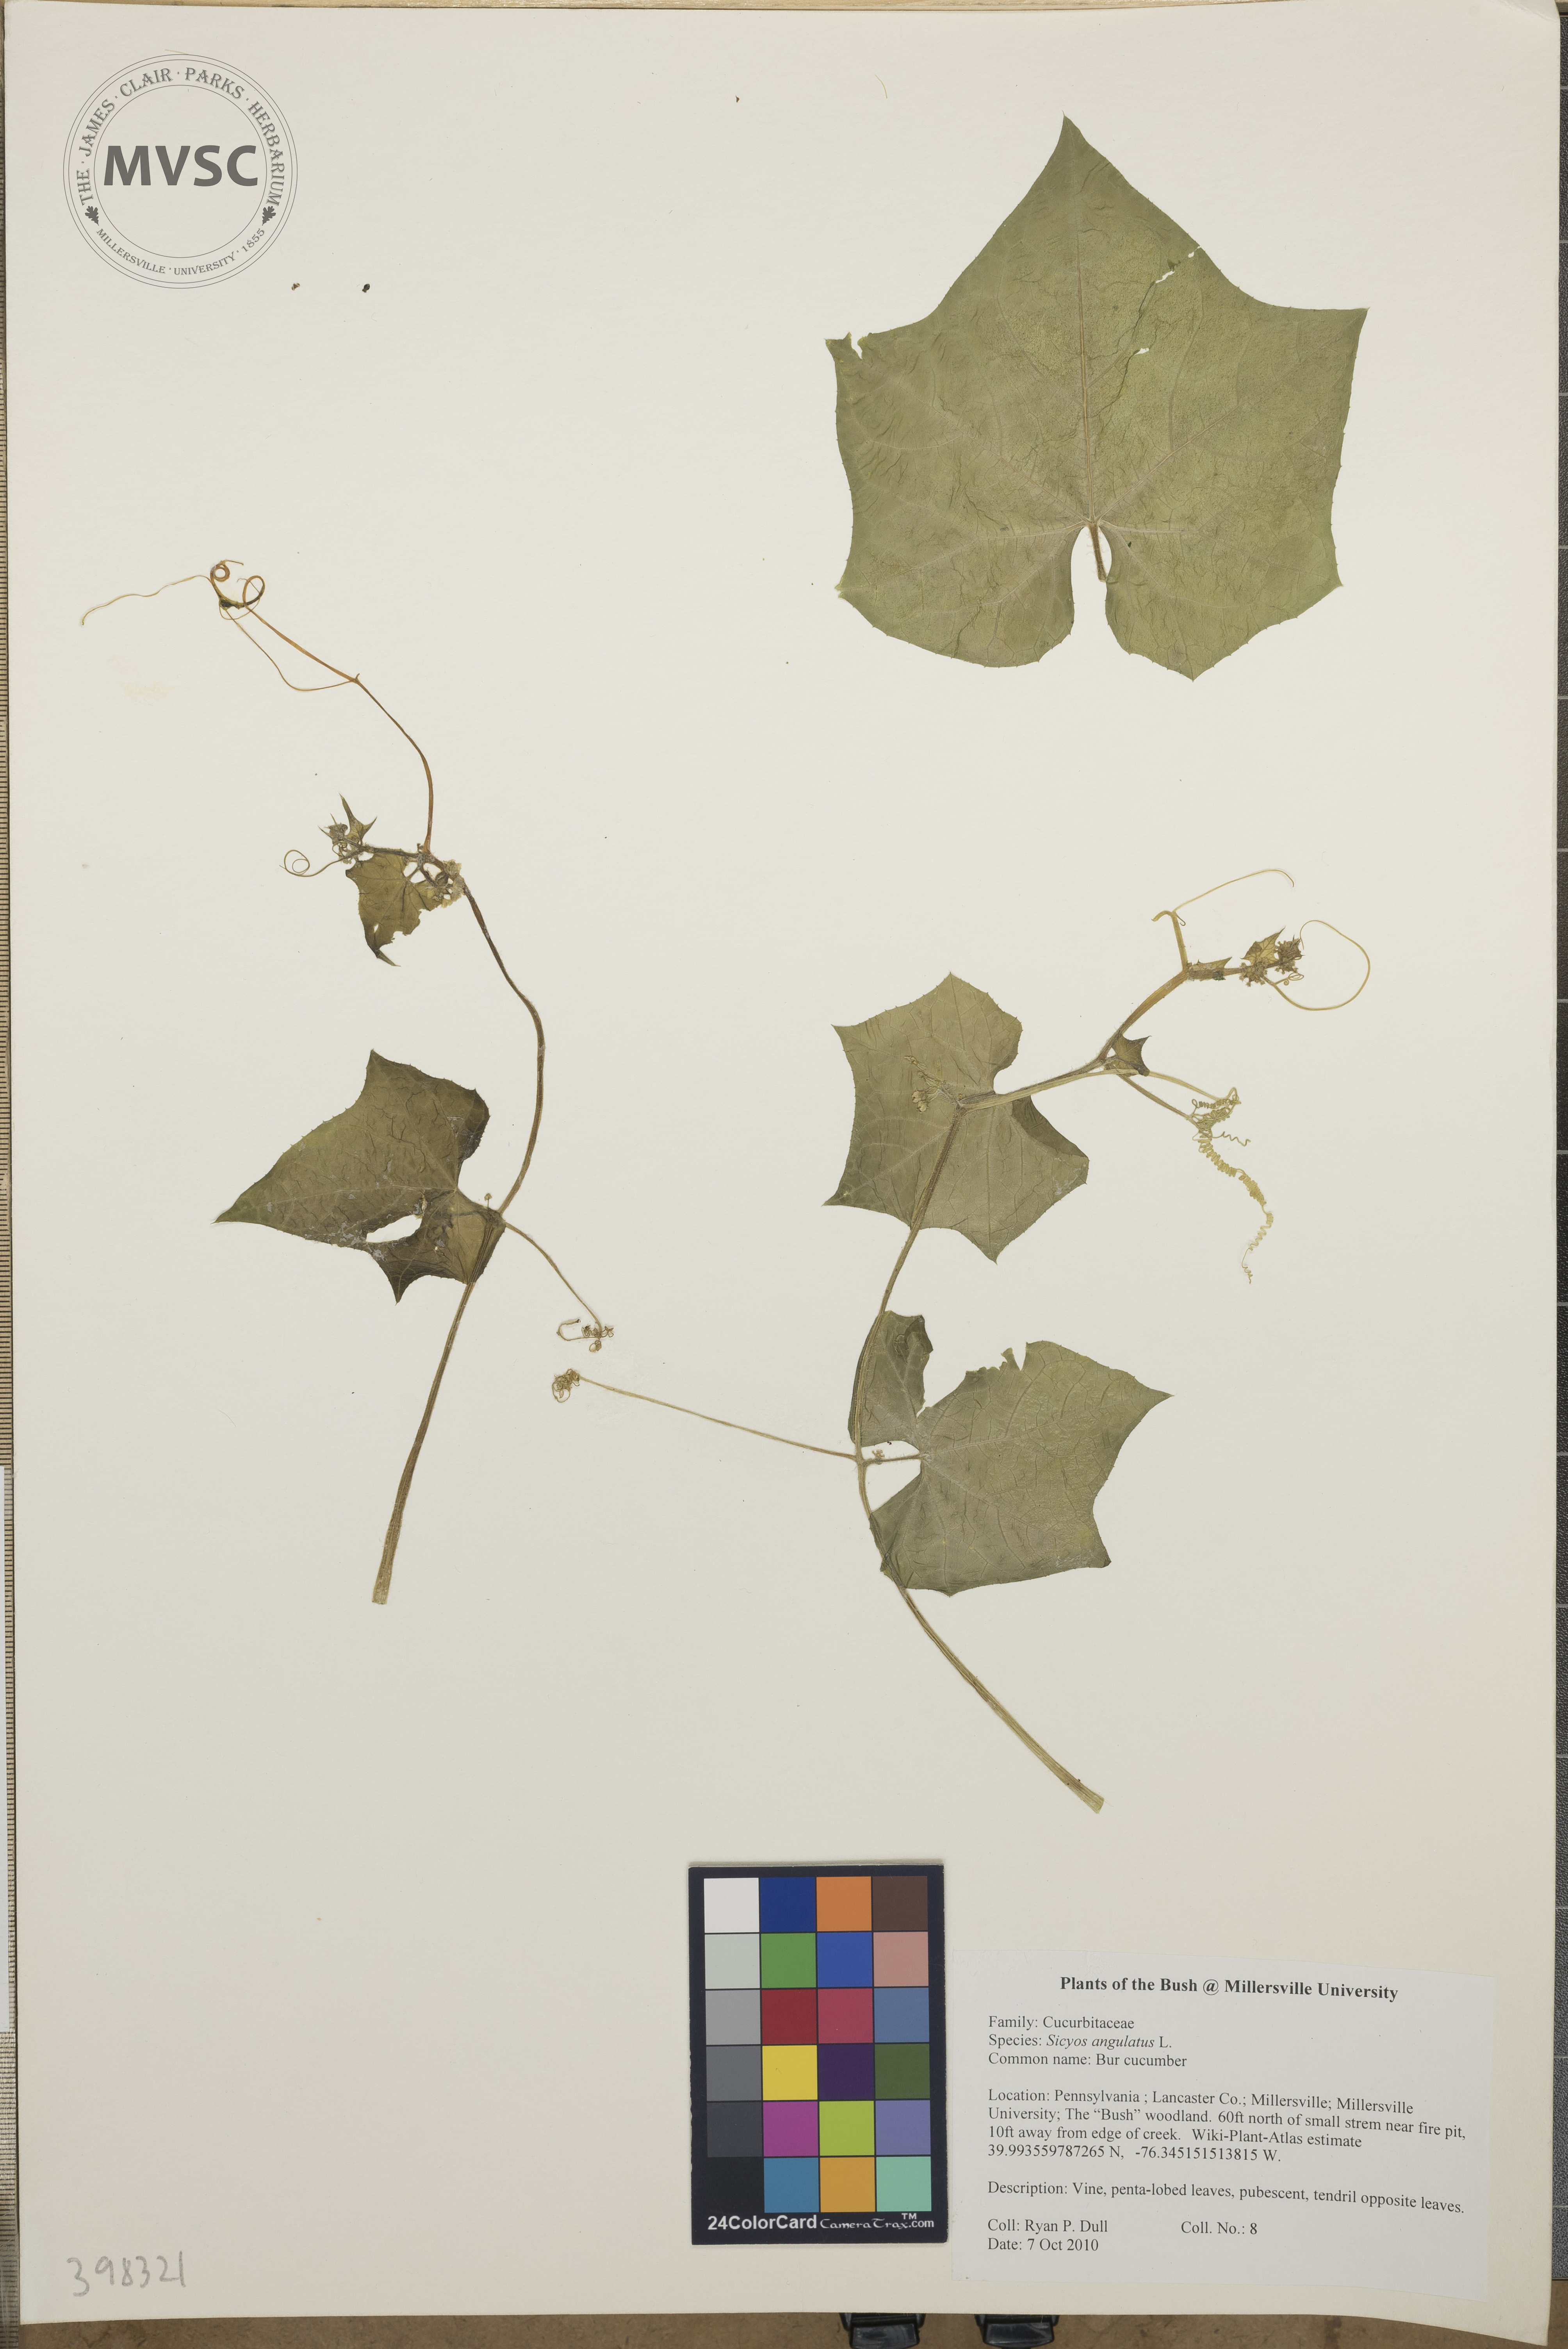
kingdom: Plantae
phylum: Tracheophyta
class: Magnoliopsida
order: Cucurbitales
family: Cucurbitaceae
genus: Sicyos
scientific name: Sicyos angulatus
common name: Bur cucumber
